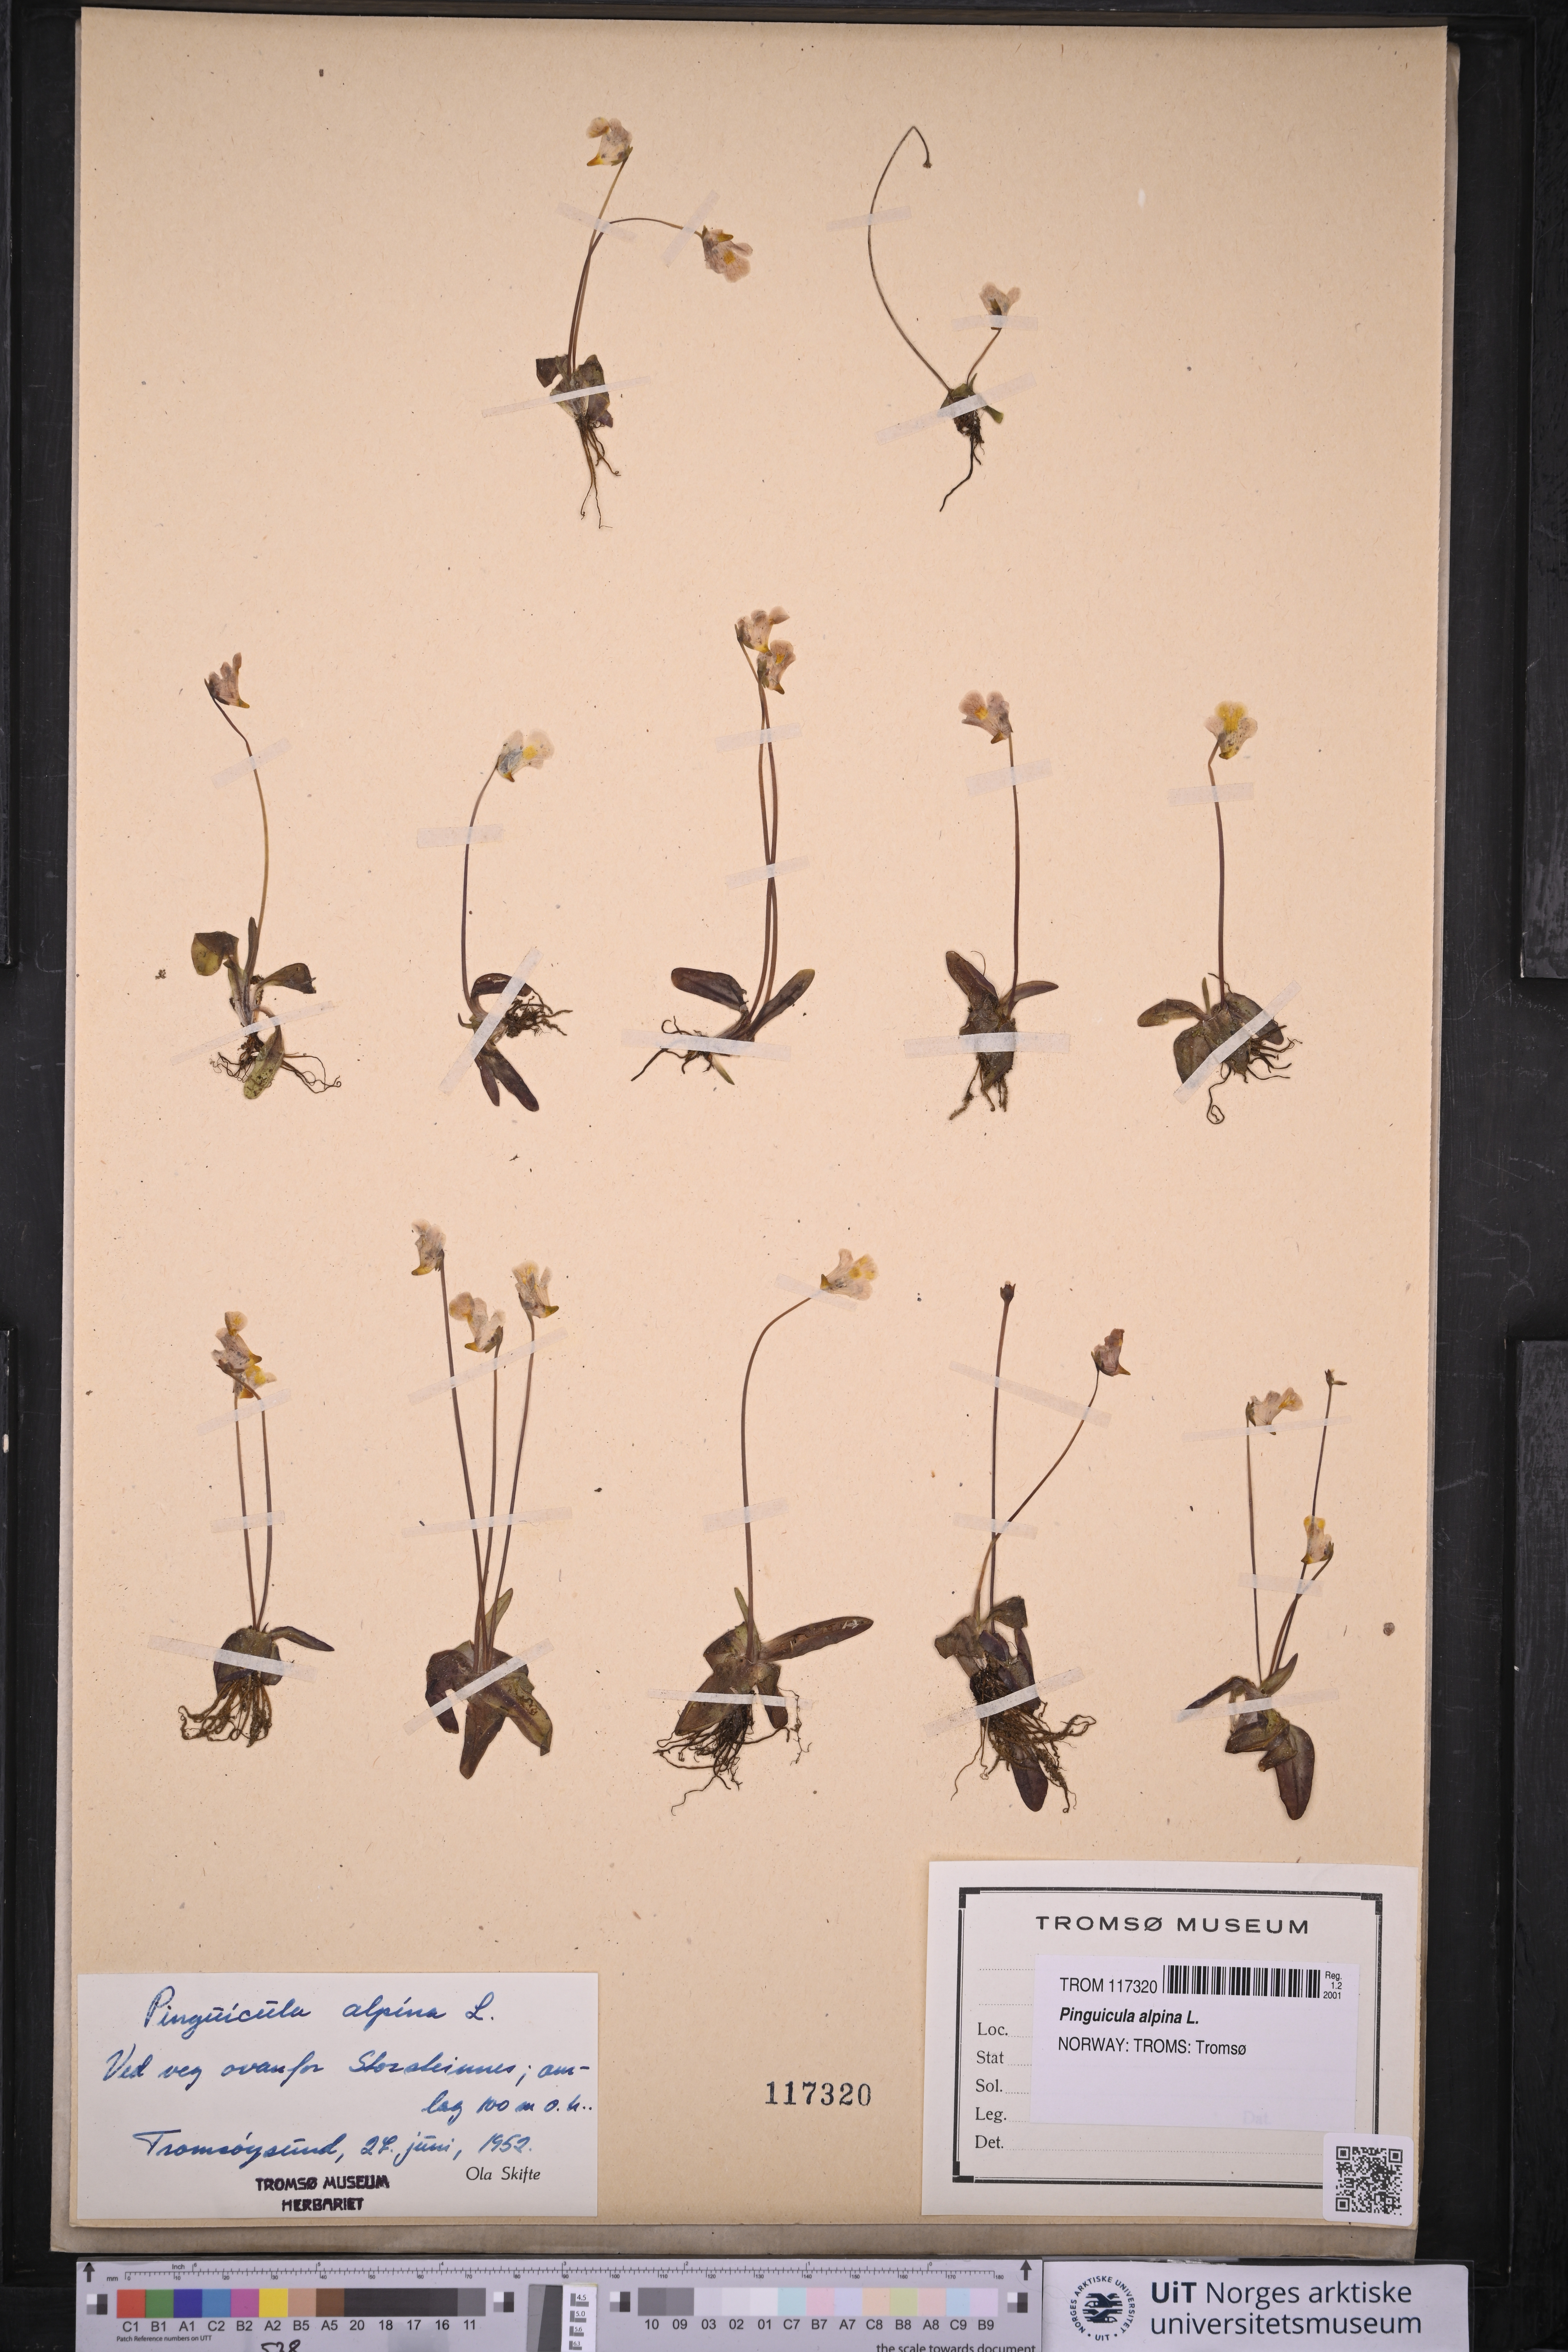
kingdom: Plantae
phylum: Tracheophyta
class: Magnoliopsida
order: Lamiales
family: Lentibulariaceae
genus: Pinguicula
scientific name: Pinguicula alpina
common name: Alpine butterwort
